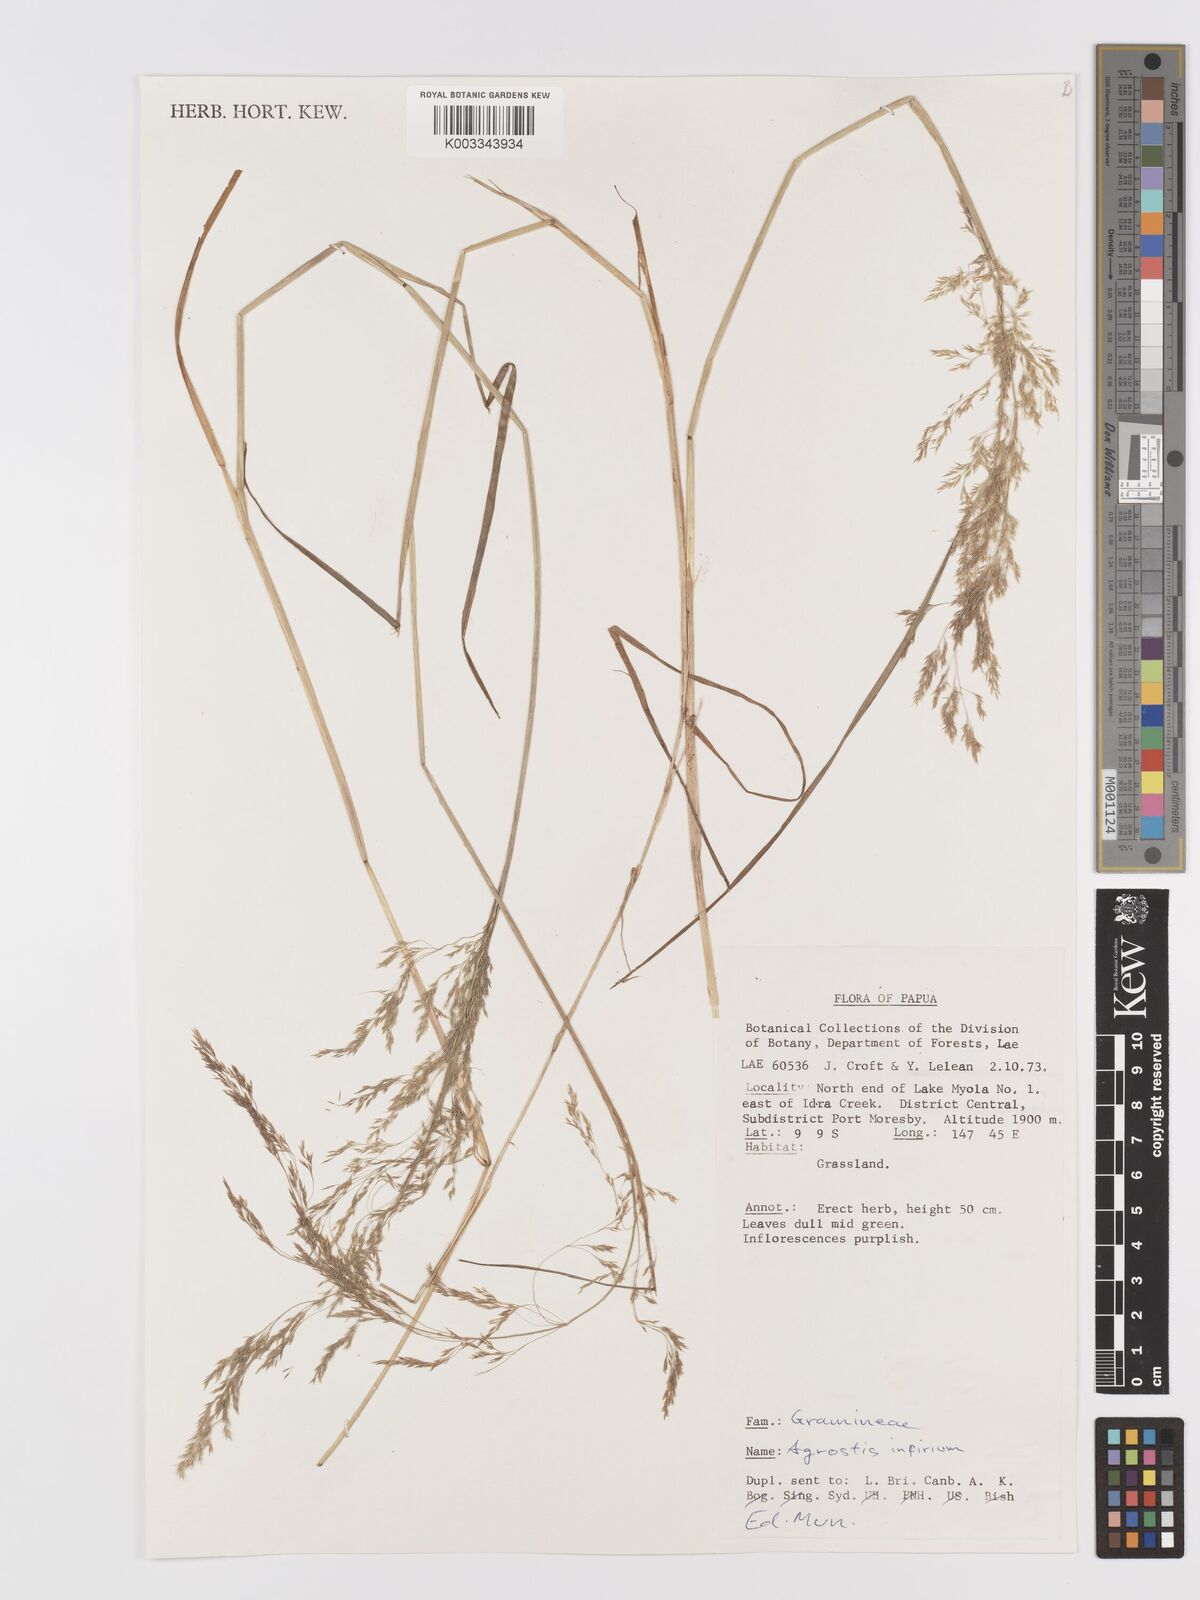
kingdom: Plantae
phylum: Tracheophyta
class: Liliopsida
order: Poales
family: Poaceae
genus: Agrostis
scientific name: Agrostis infirma
